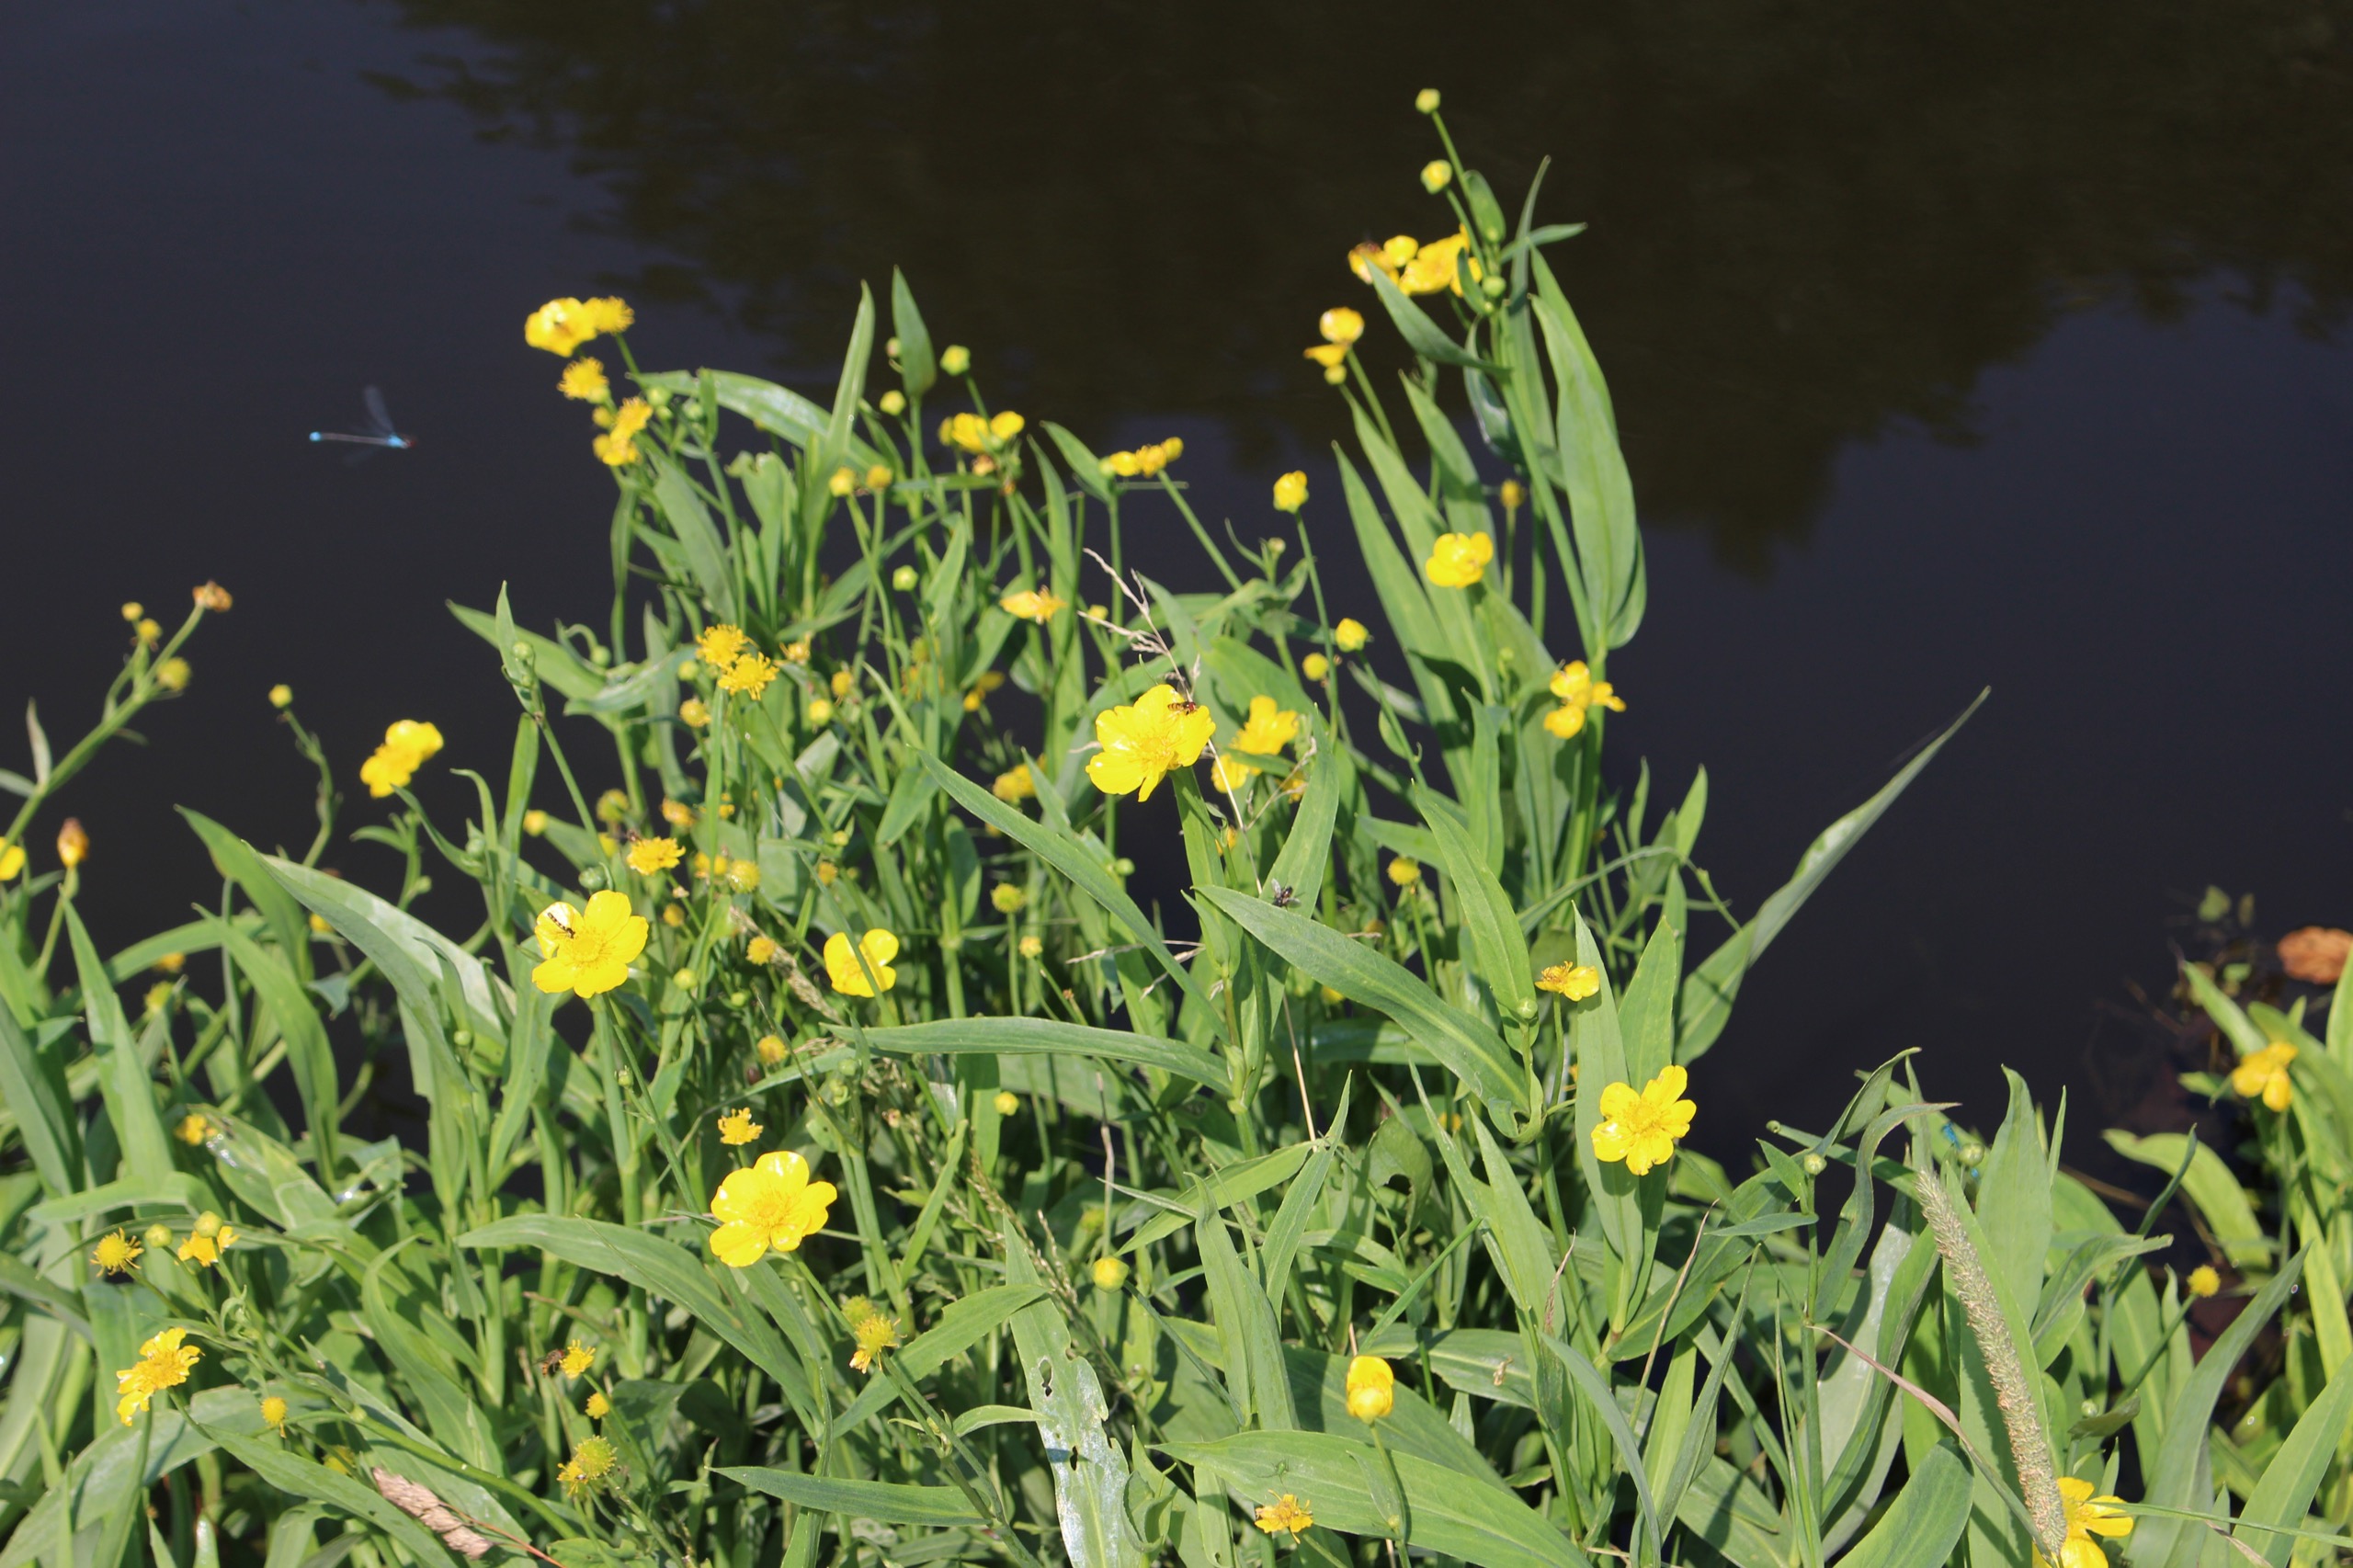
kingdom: Plantae
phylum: Tracheophyta
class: Magnoliopsida
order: Ranunculales
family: Ranunculaceae
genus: Ranunculus
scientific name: Ranunculus lingua
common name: Langbladet ranunkel
